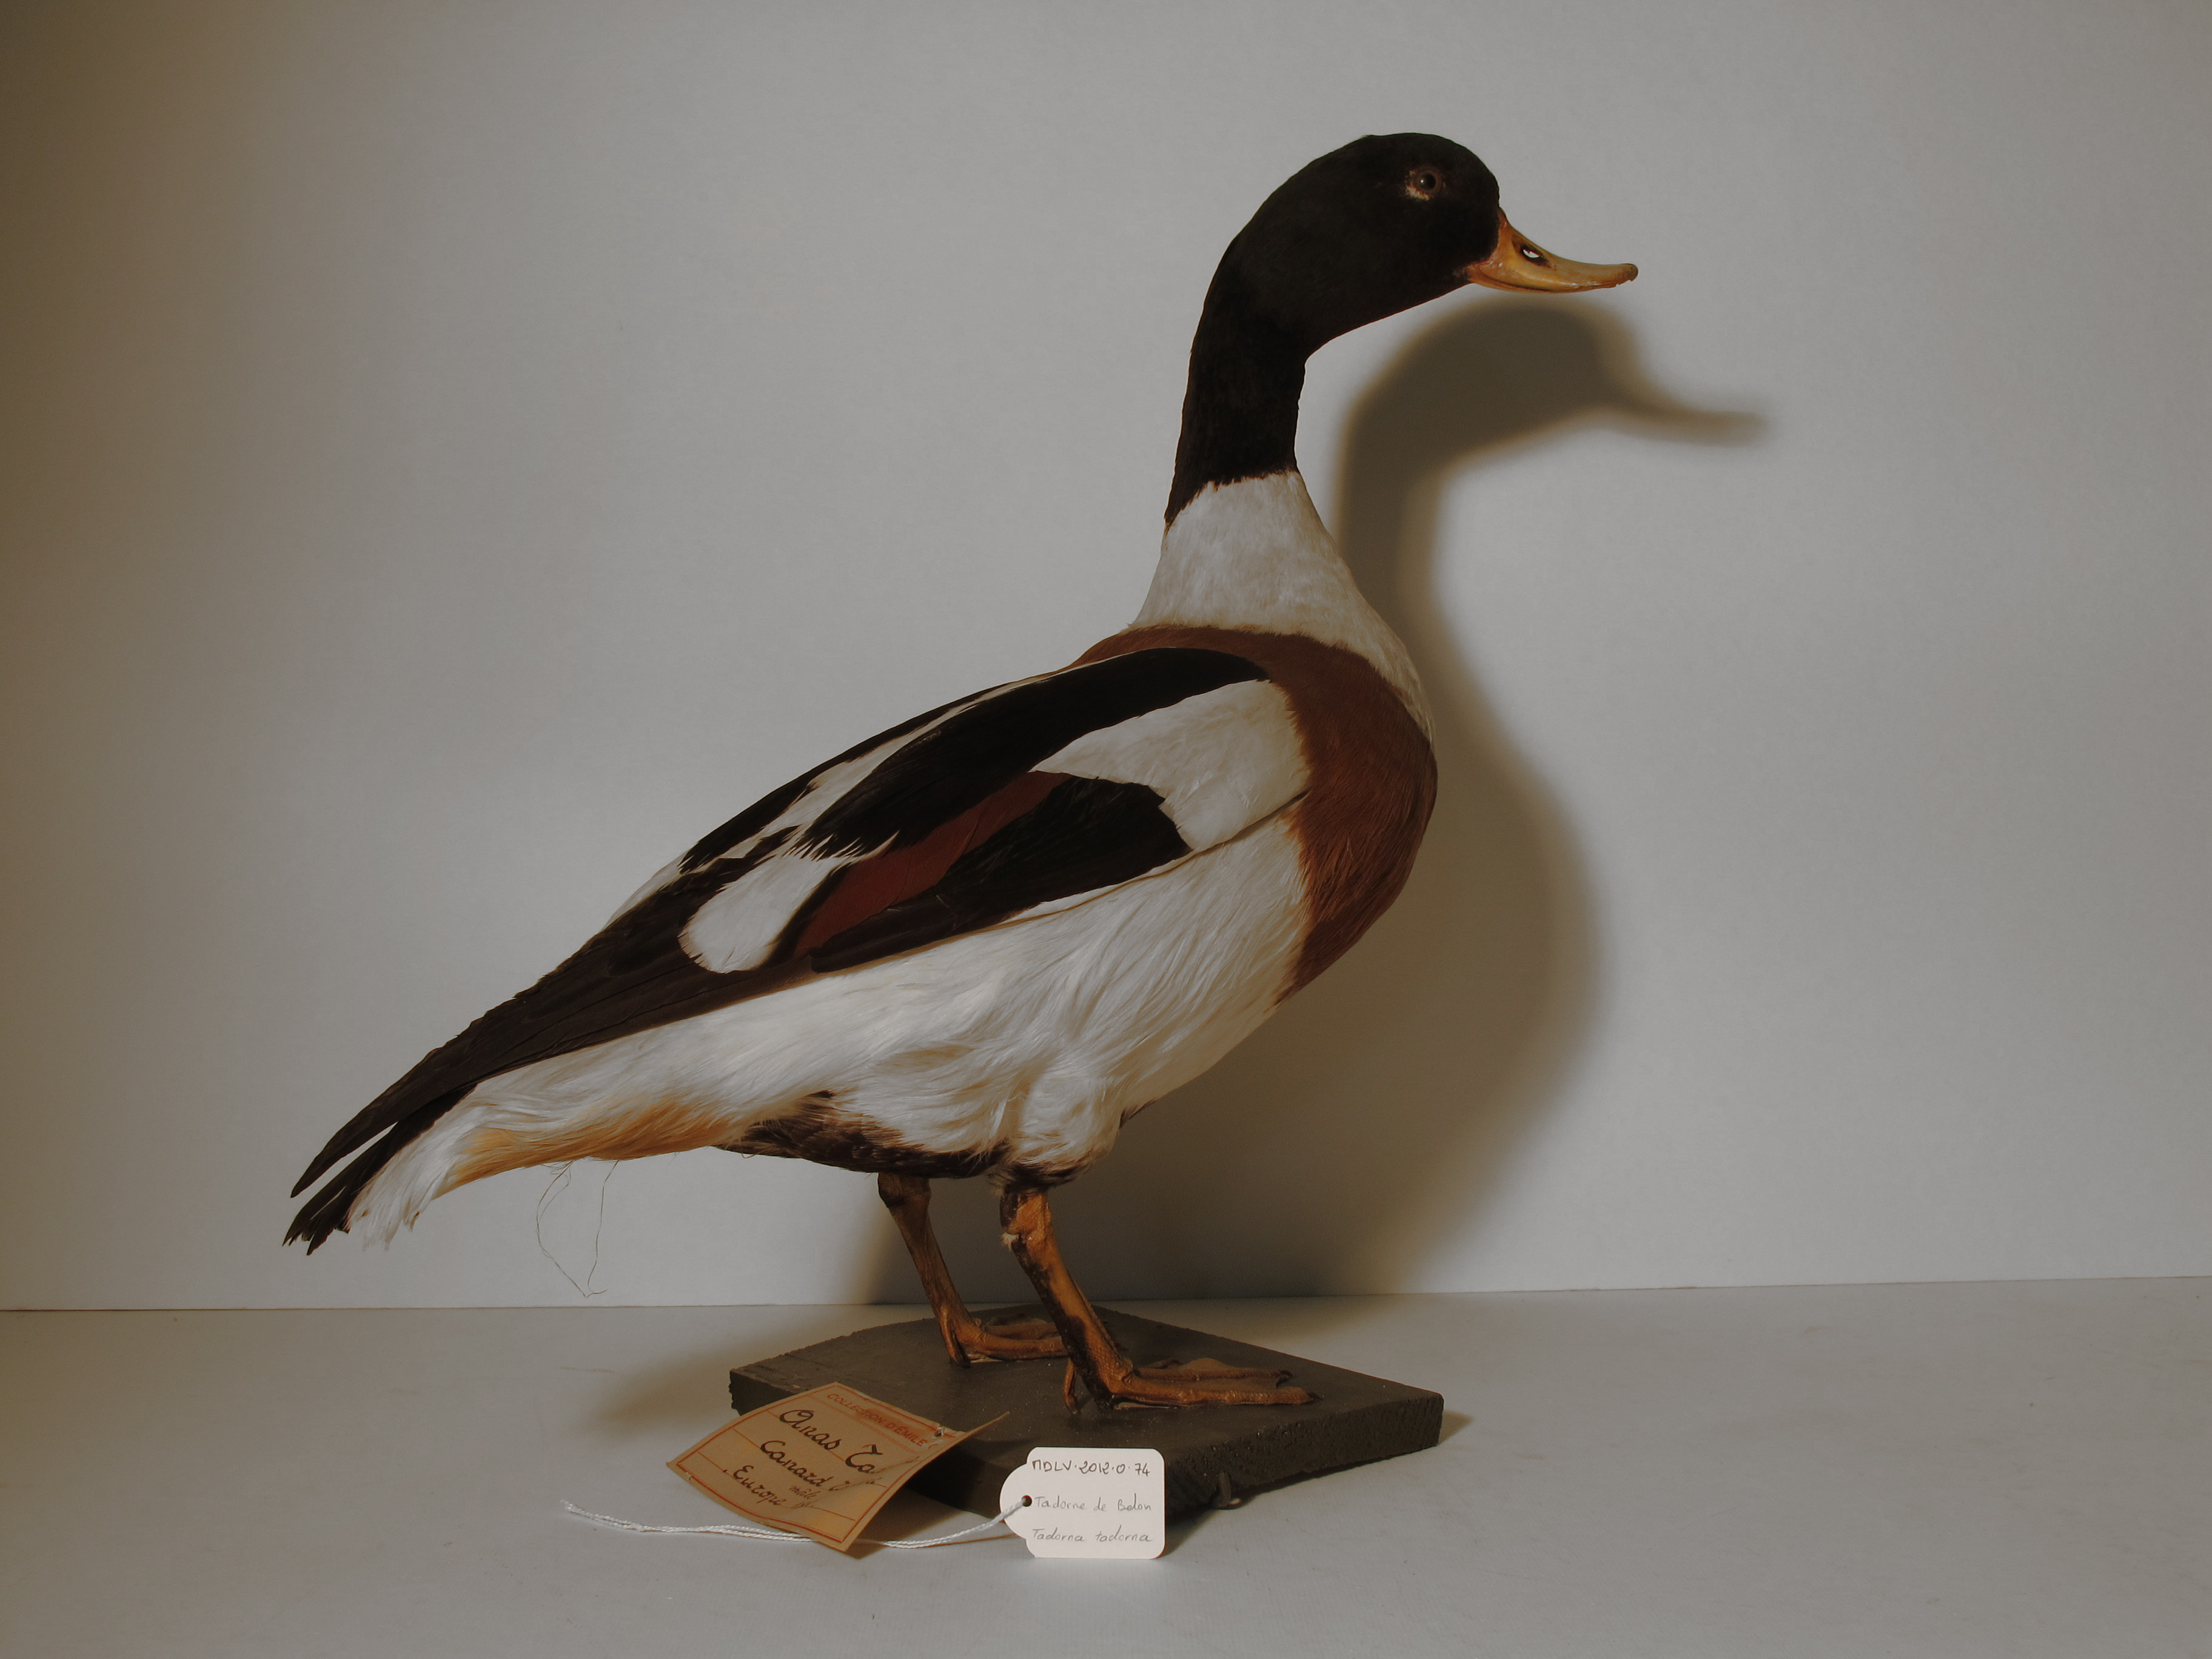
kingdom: Animalia
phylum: Chordata
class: Aves
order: Anseriformes
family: Anatidae
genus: Tadorna
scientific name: Tadorna tadorna
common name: Common Shelduck
